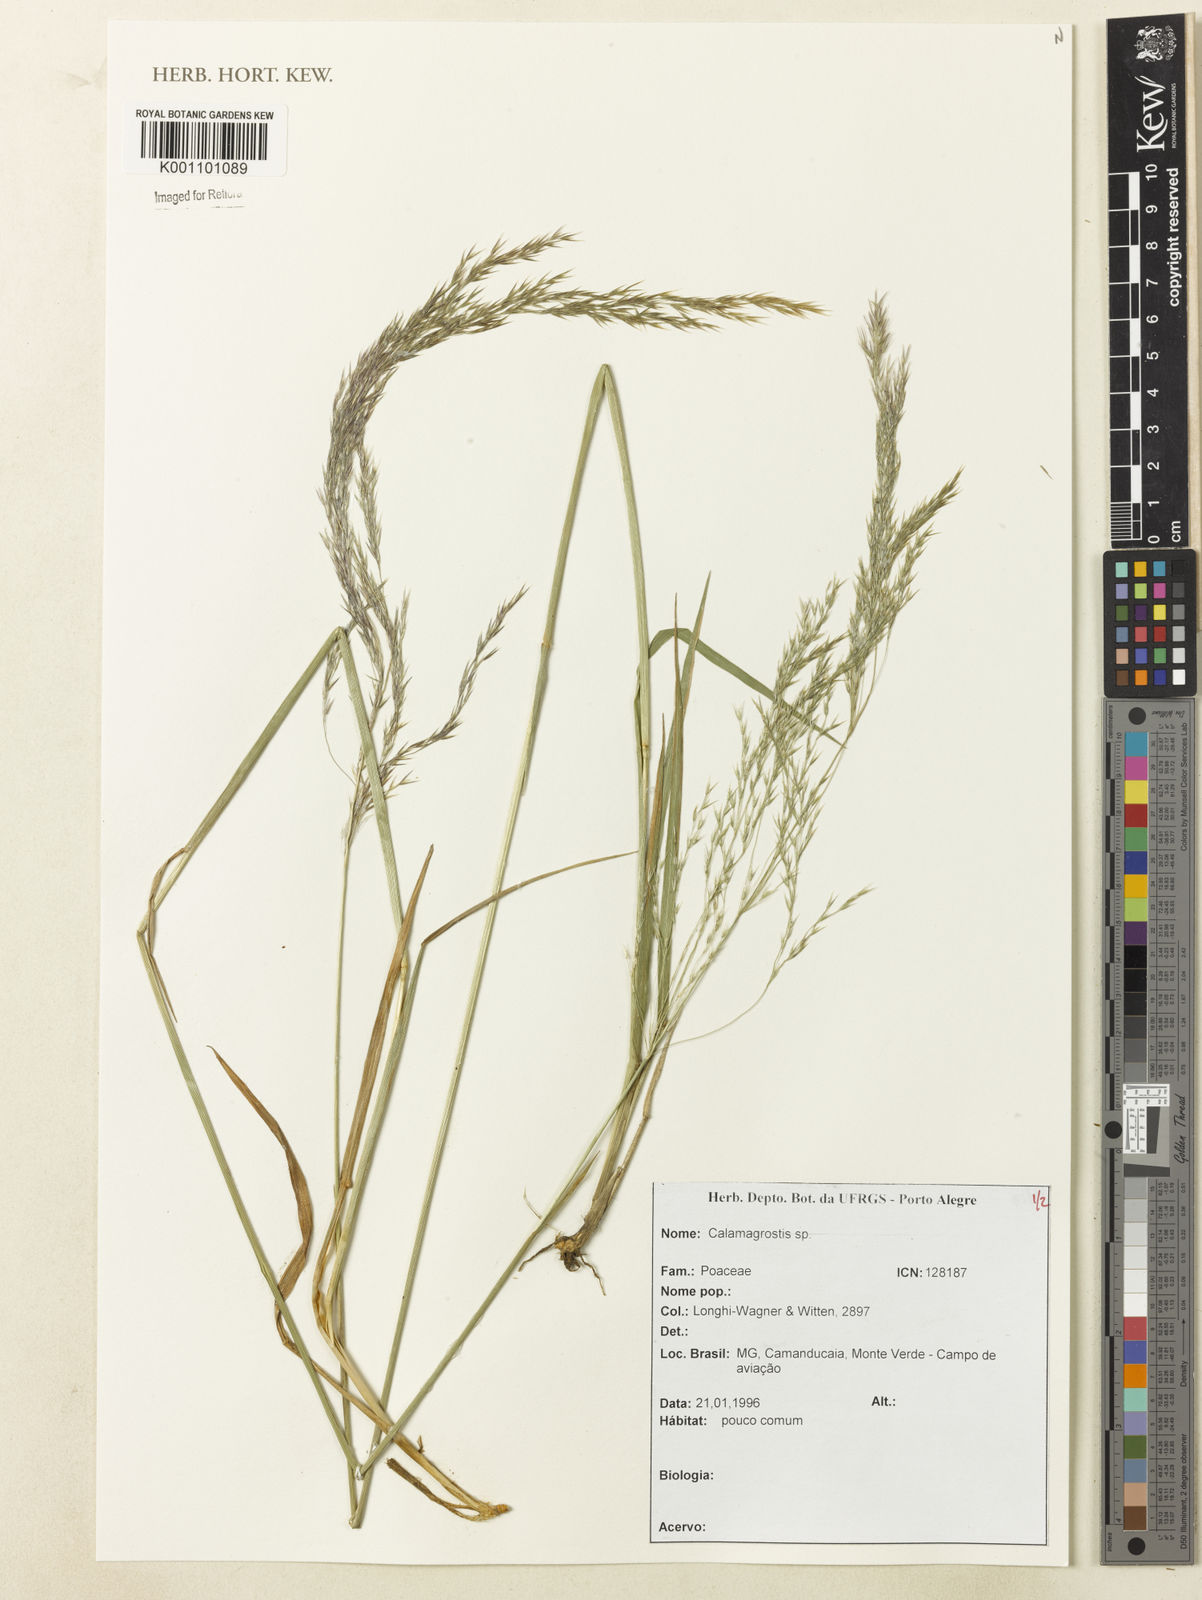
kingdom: Plantae
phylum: Tracheophyta
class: Liliopsida
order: Poales
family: Poaceae
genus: Calamagrostis
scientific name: Calamagrostis
